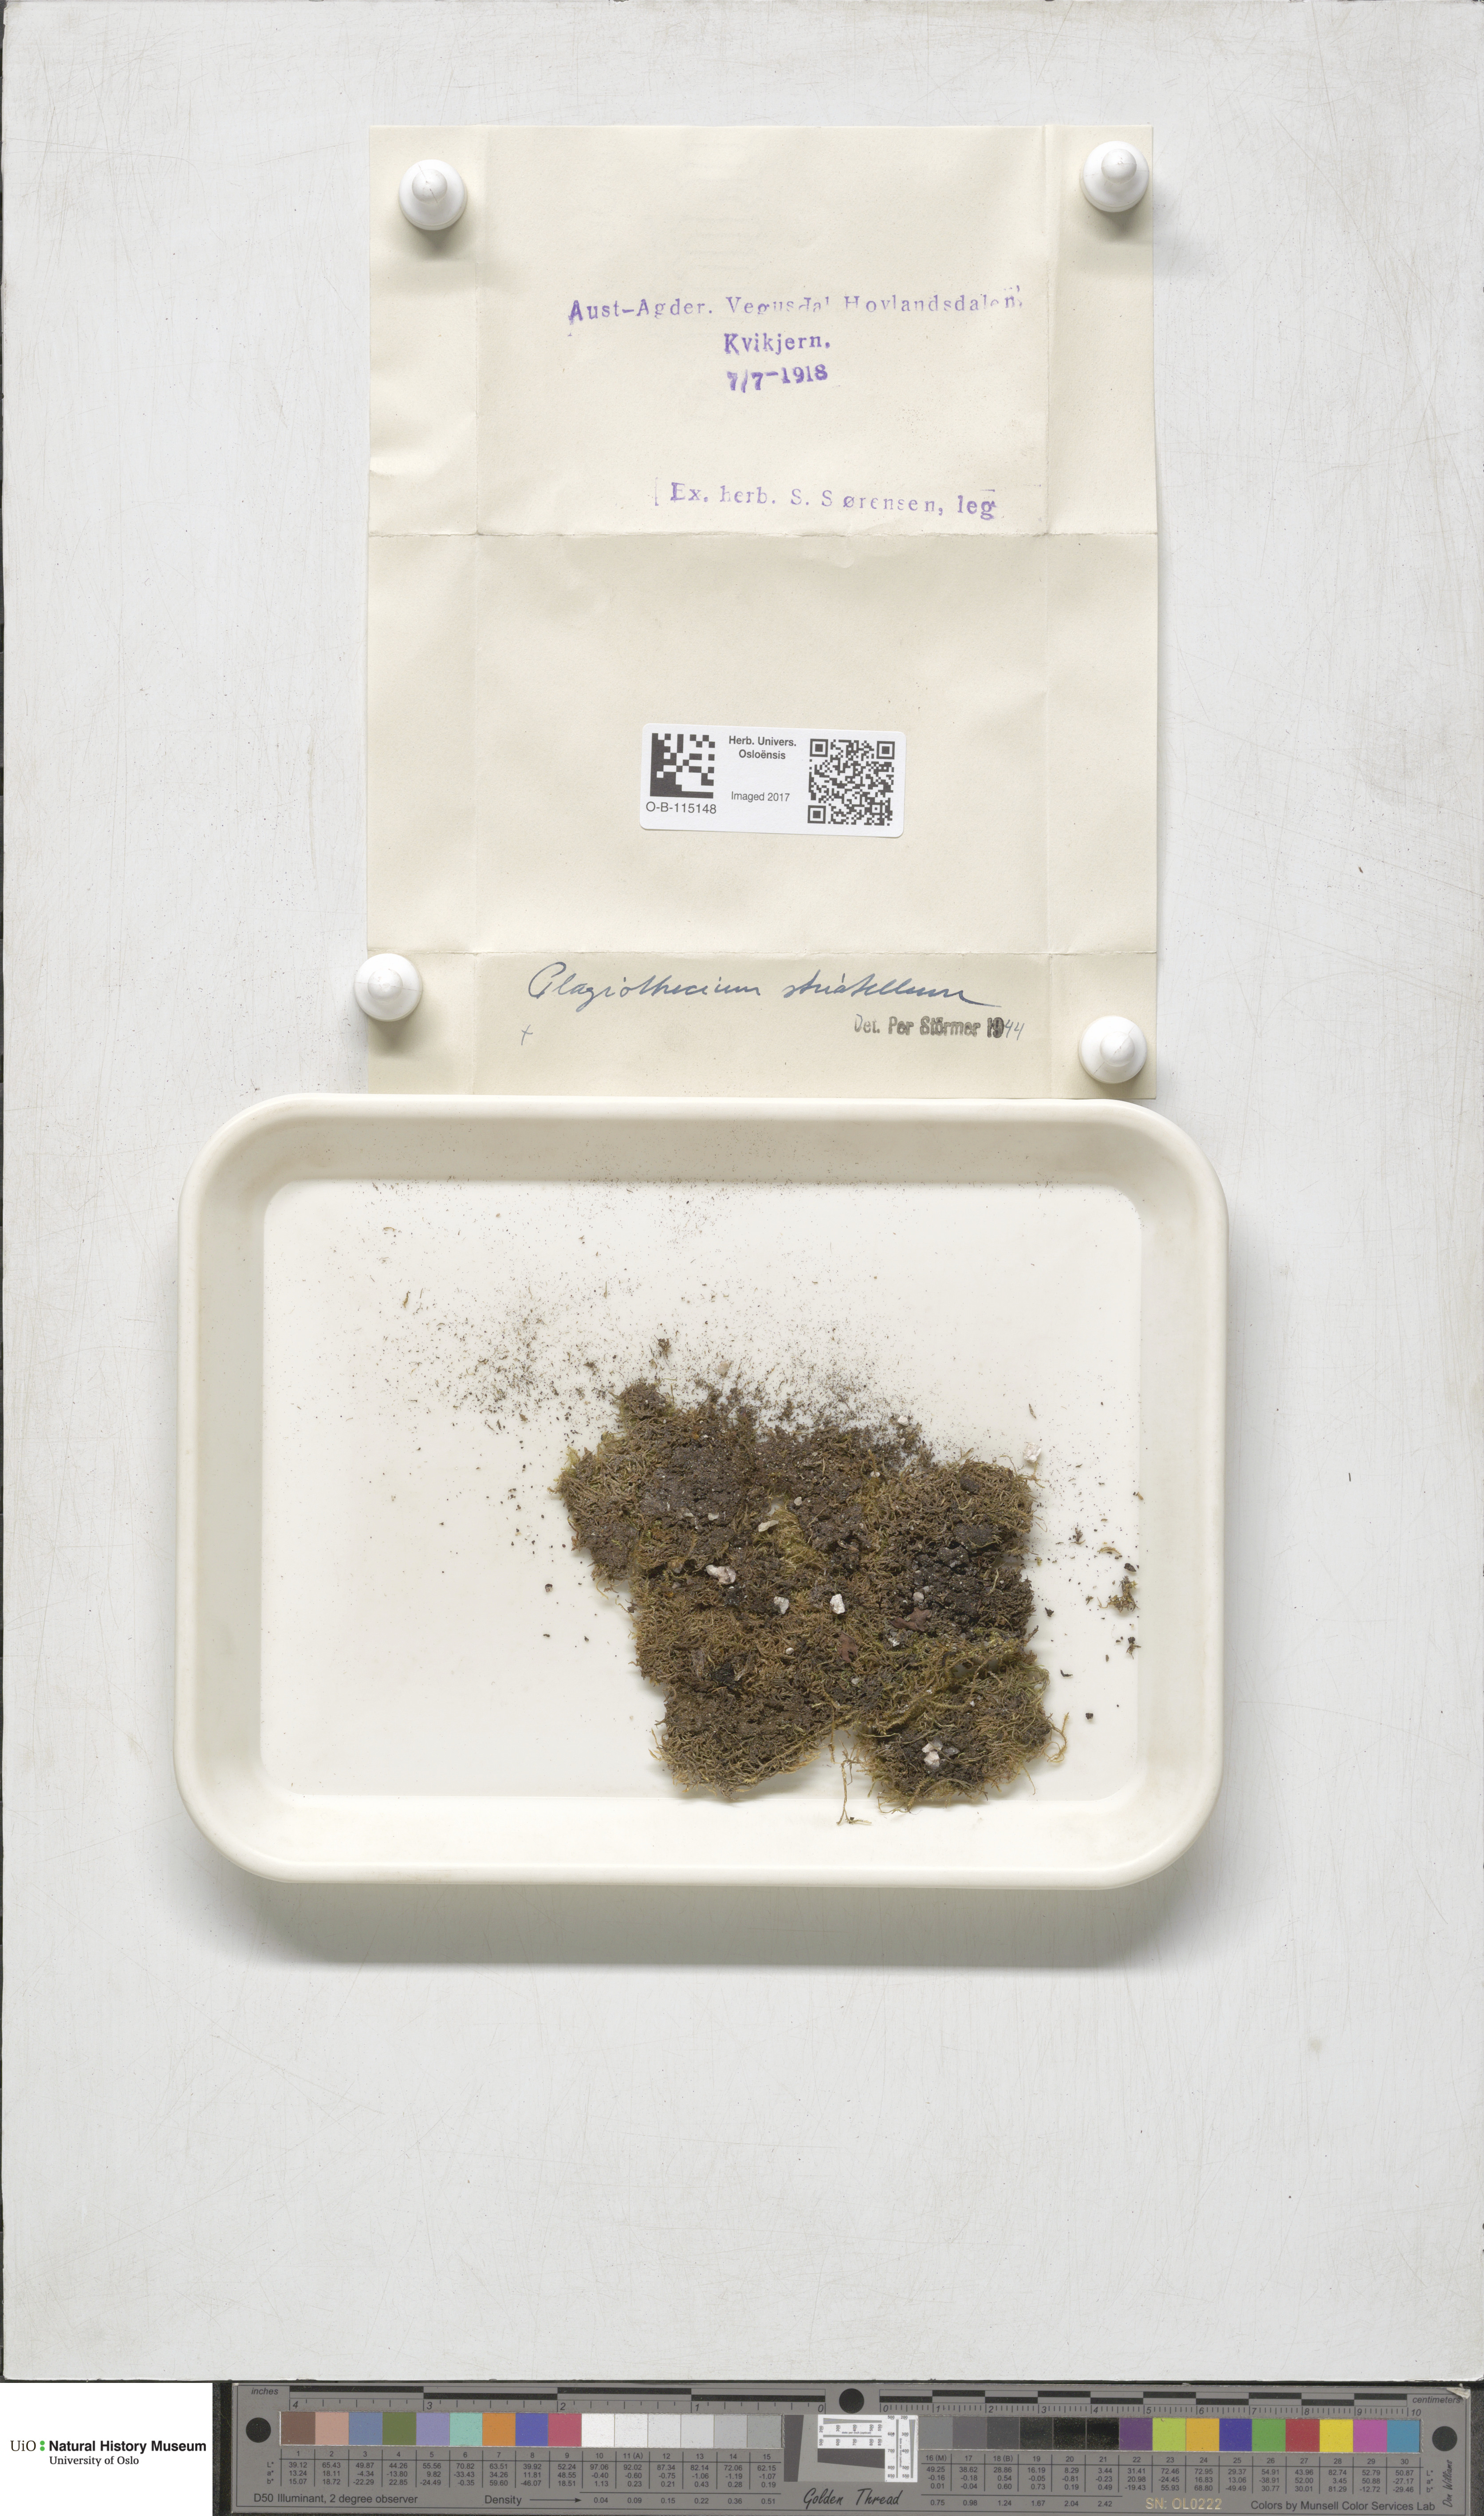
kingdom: Plantae
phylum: Bryophyta
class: Bryopsida
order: Hypnales
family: Plagiotheciaceae
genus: Herzogiella
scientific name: Herzogiella striatella
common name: Muhlenbeck's feather-moss
